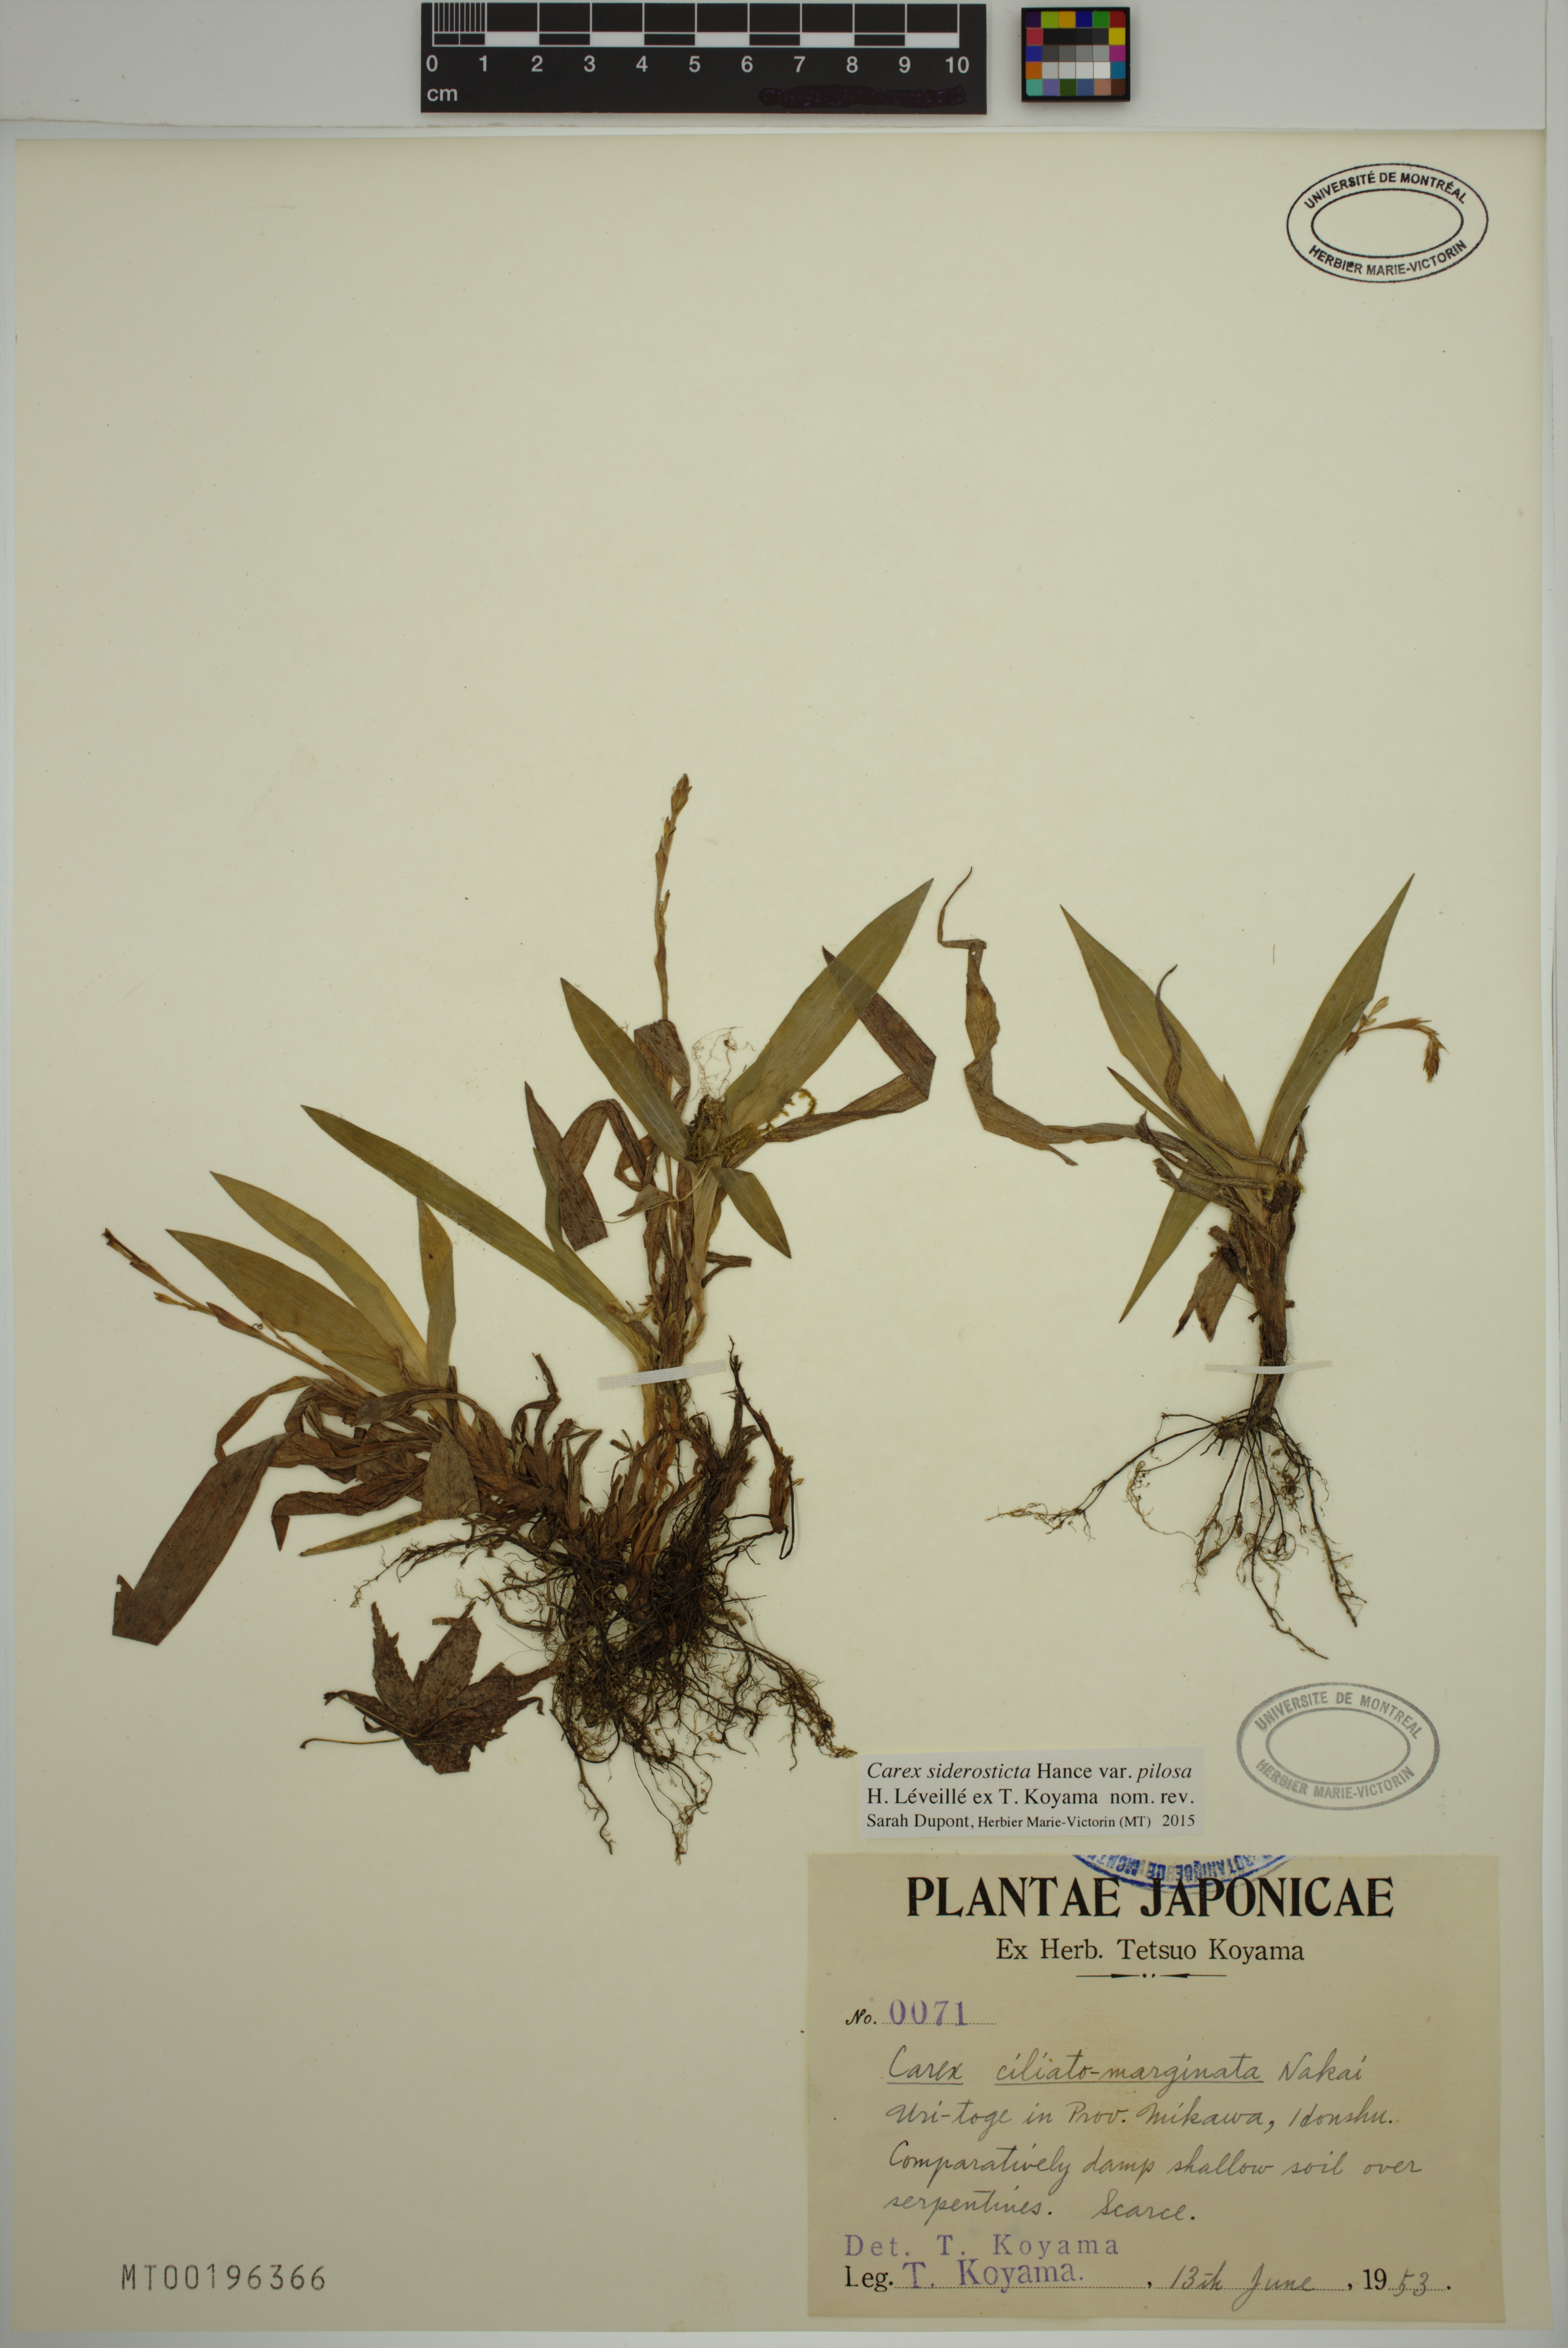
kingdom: Plantae
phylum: Tracheophyta
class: Liliopsida
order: Poales
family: Cyperaceae
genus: Carex
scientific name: Carex siderosticta
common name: Broadleaf sedge
